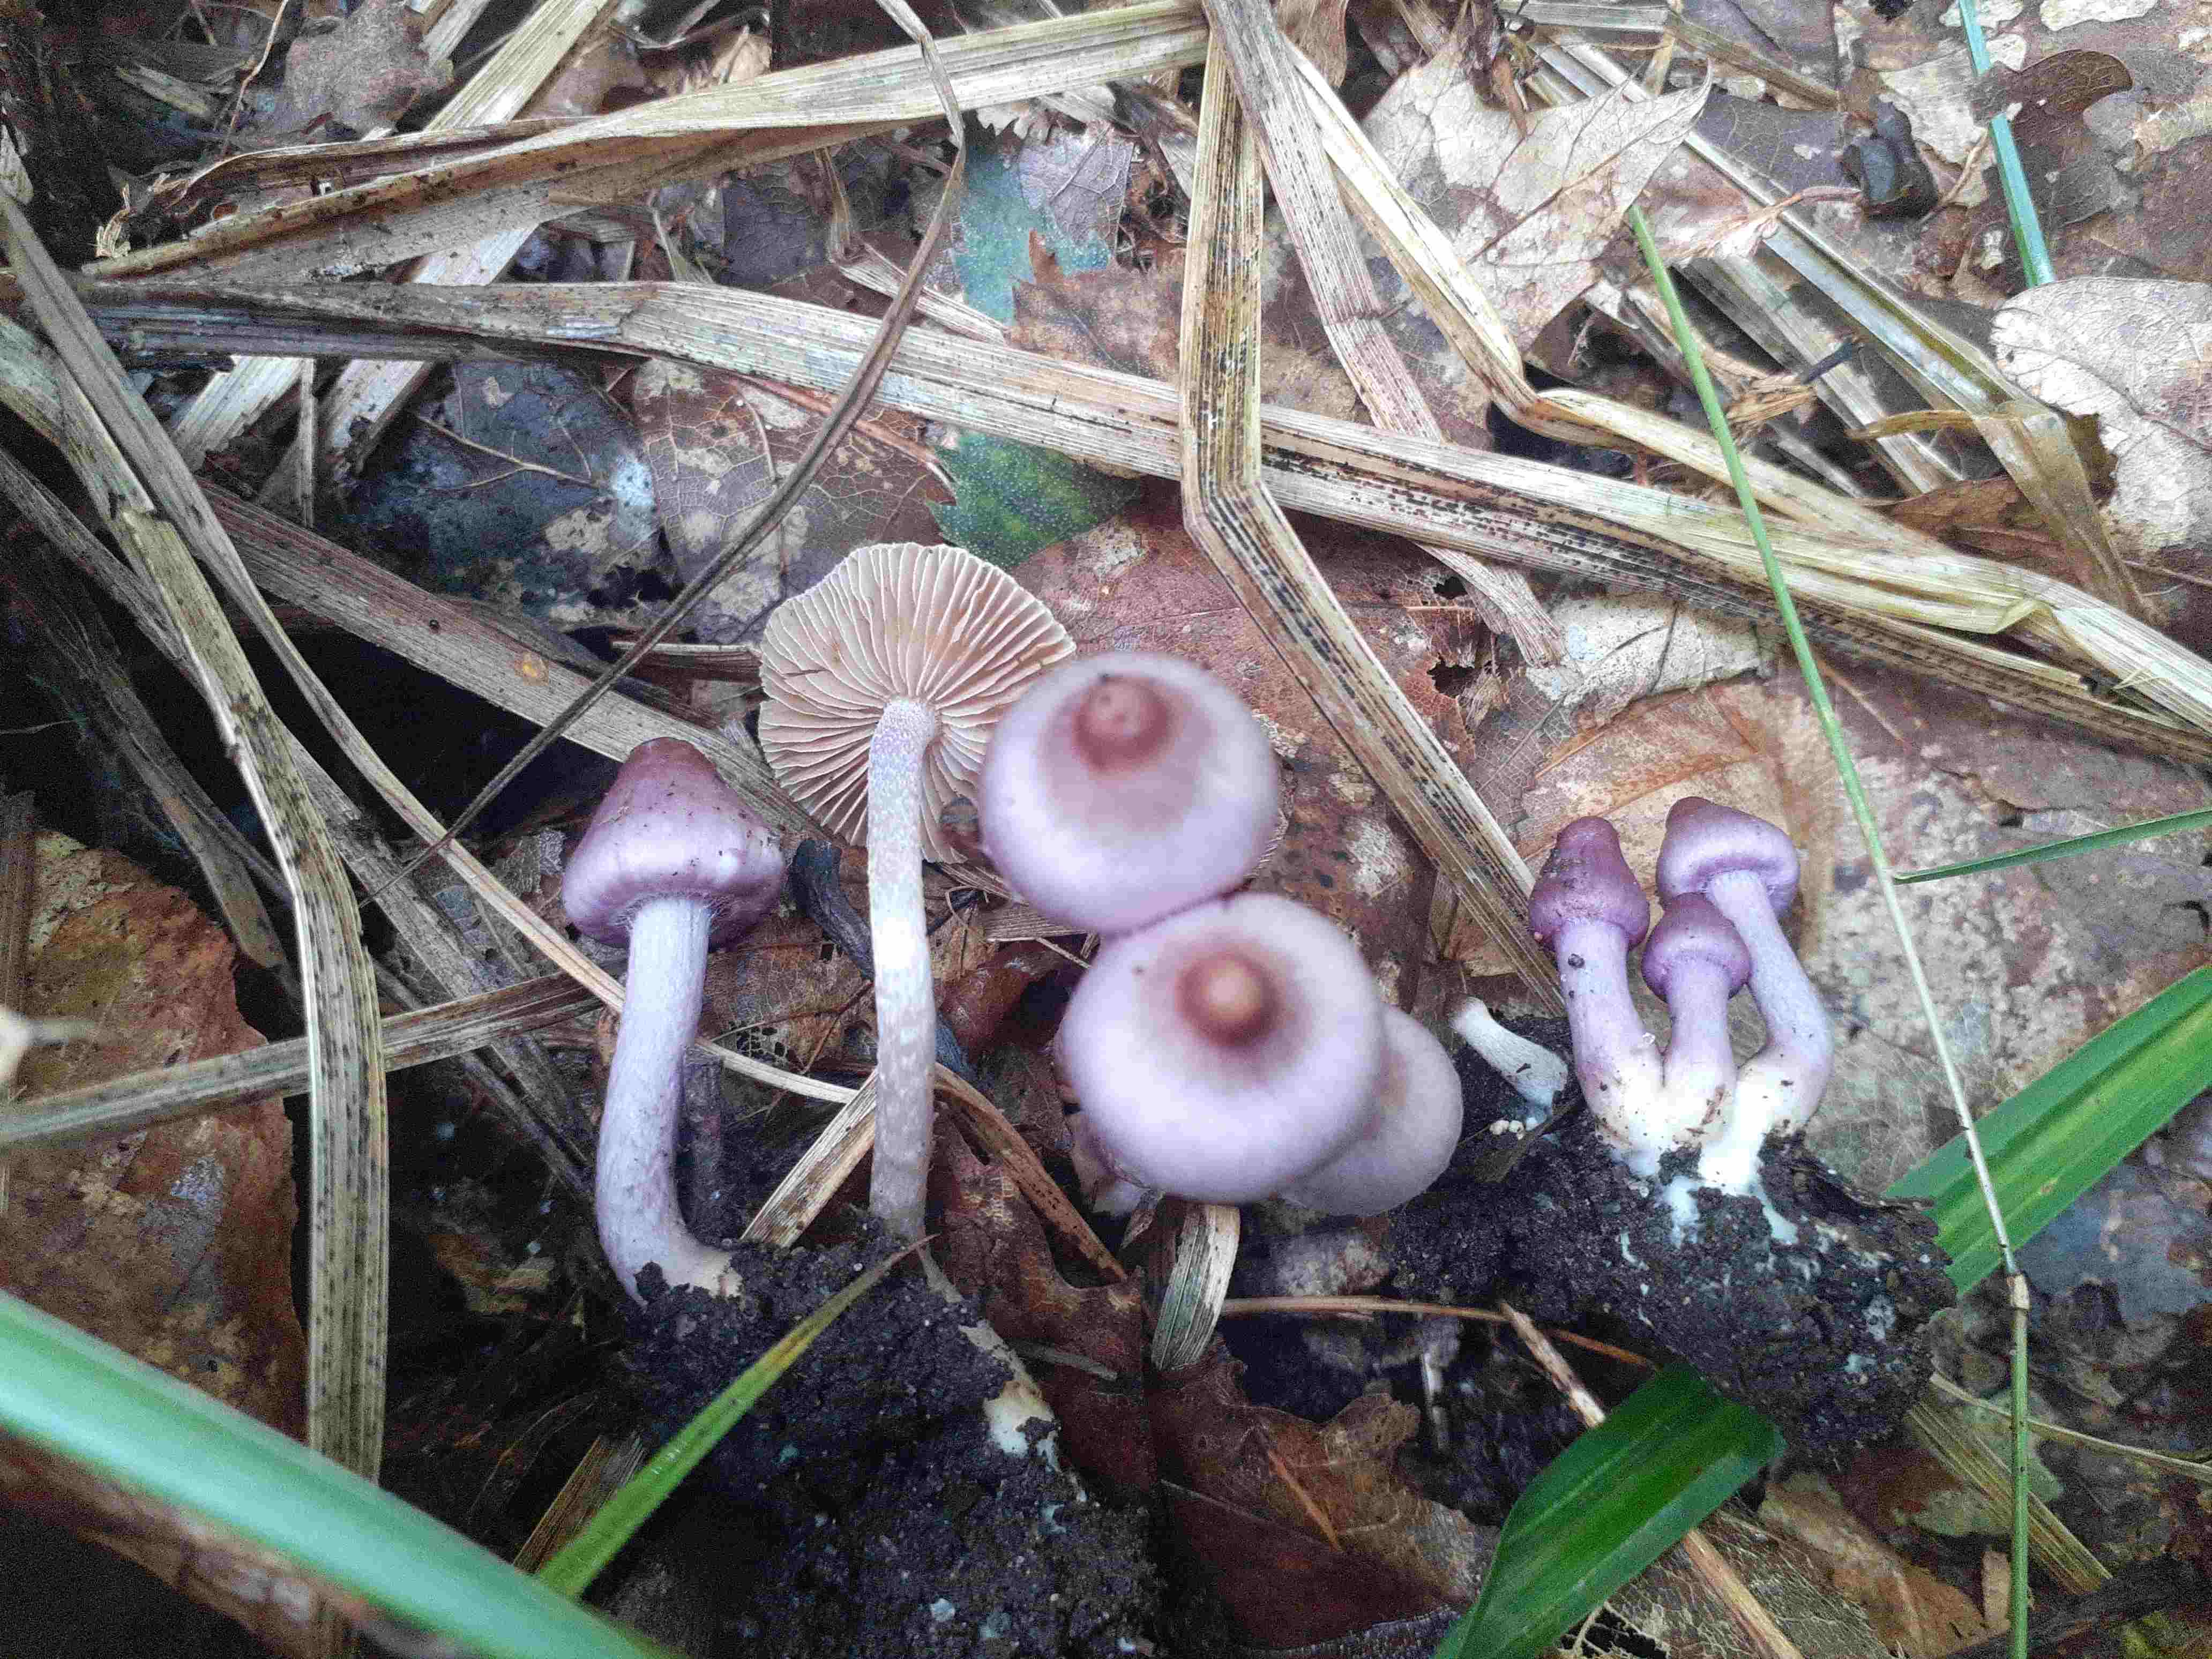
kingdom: Fungi
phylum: Basidiomycota
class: Agaricomycetes
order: Agaricales
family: Inocybaceae
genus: Inocybe
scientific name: Inocybe sublilacina
